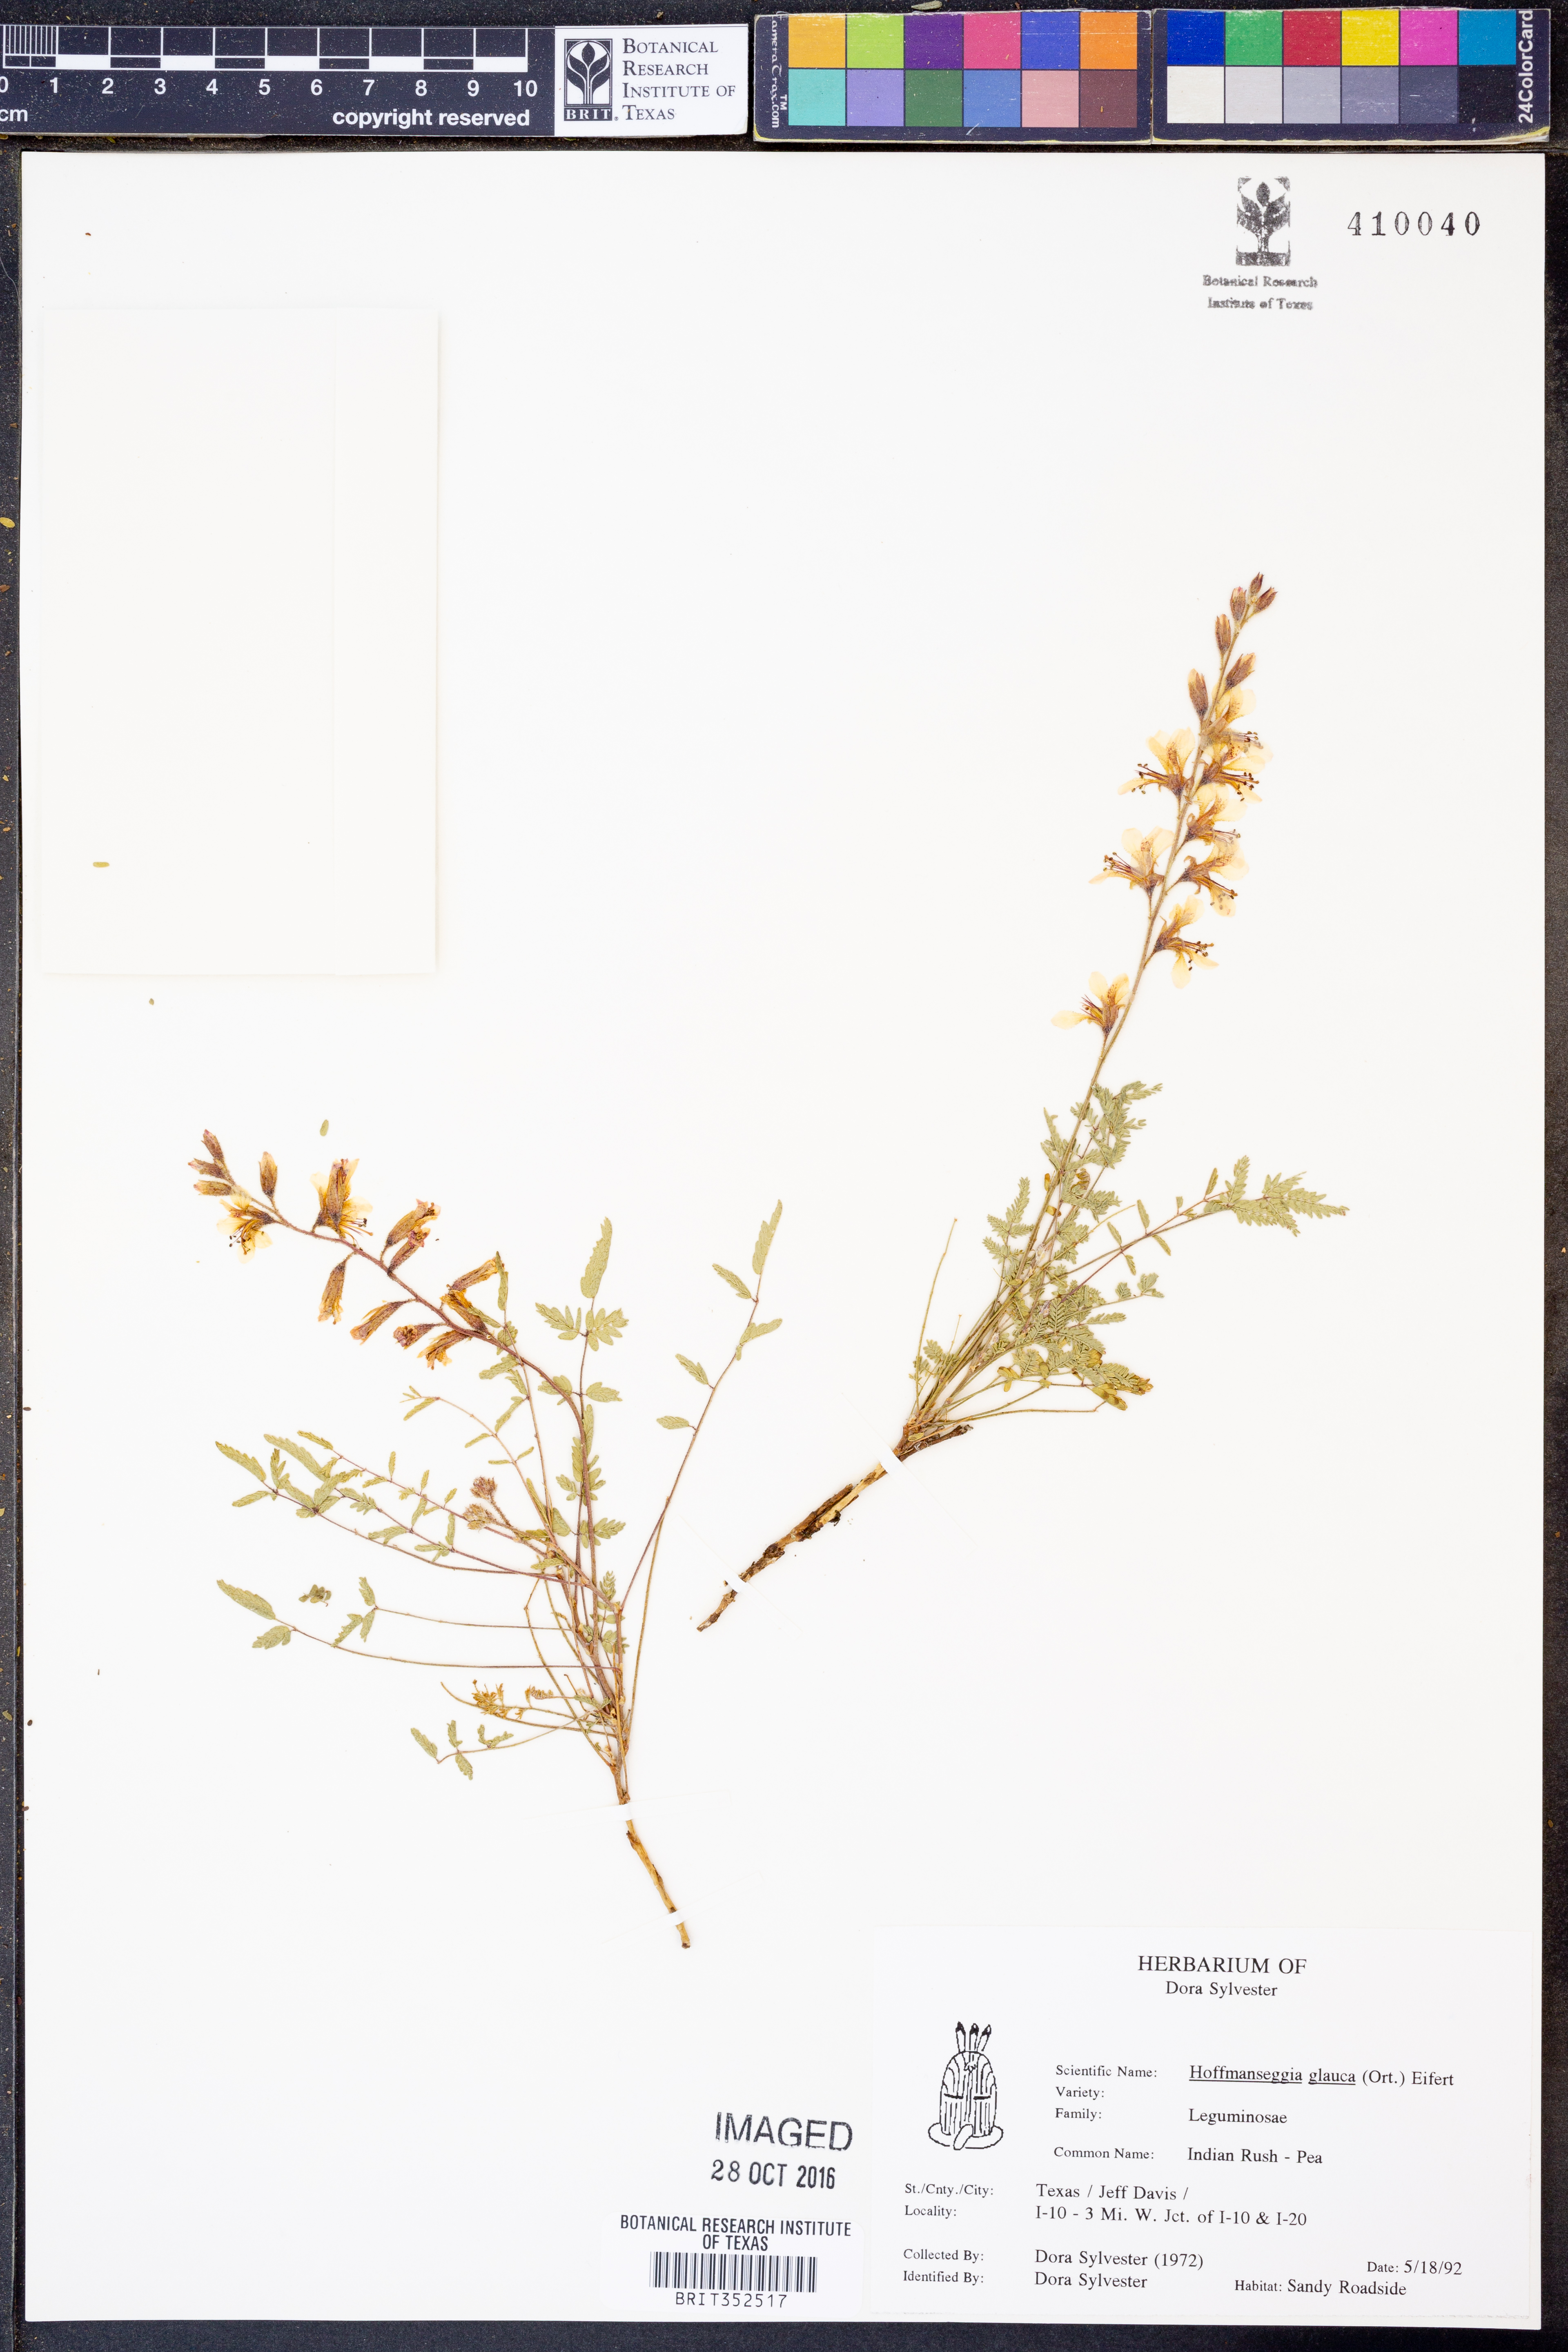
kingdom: Plantae
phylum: Tracheophyta
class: Magnoliopsida
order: Fabales
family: Fabaceae
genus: Hoffmannseggia
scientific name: Hoffmannseggia glauca
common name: Pignut
